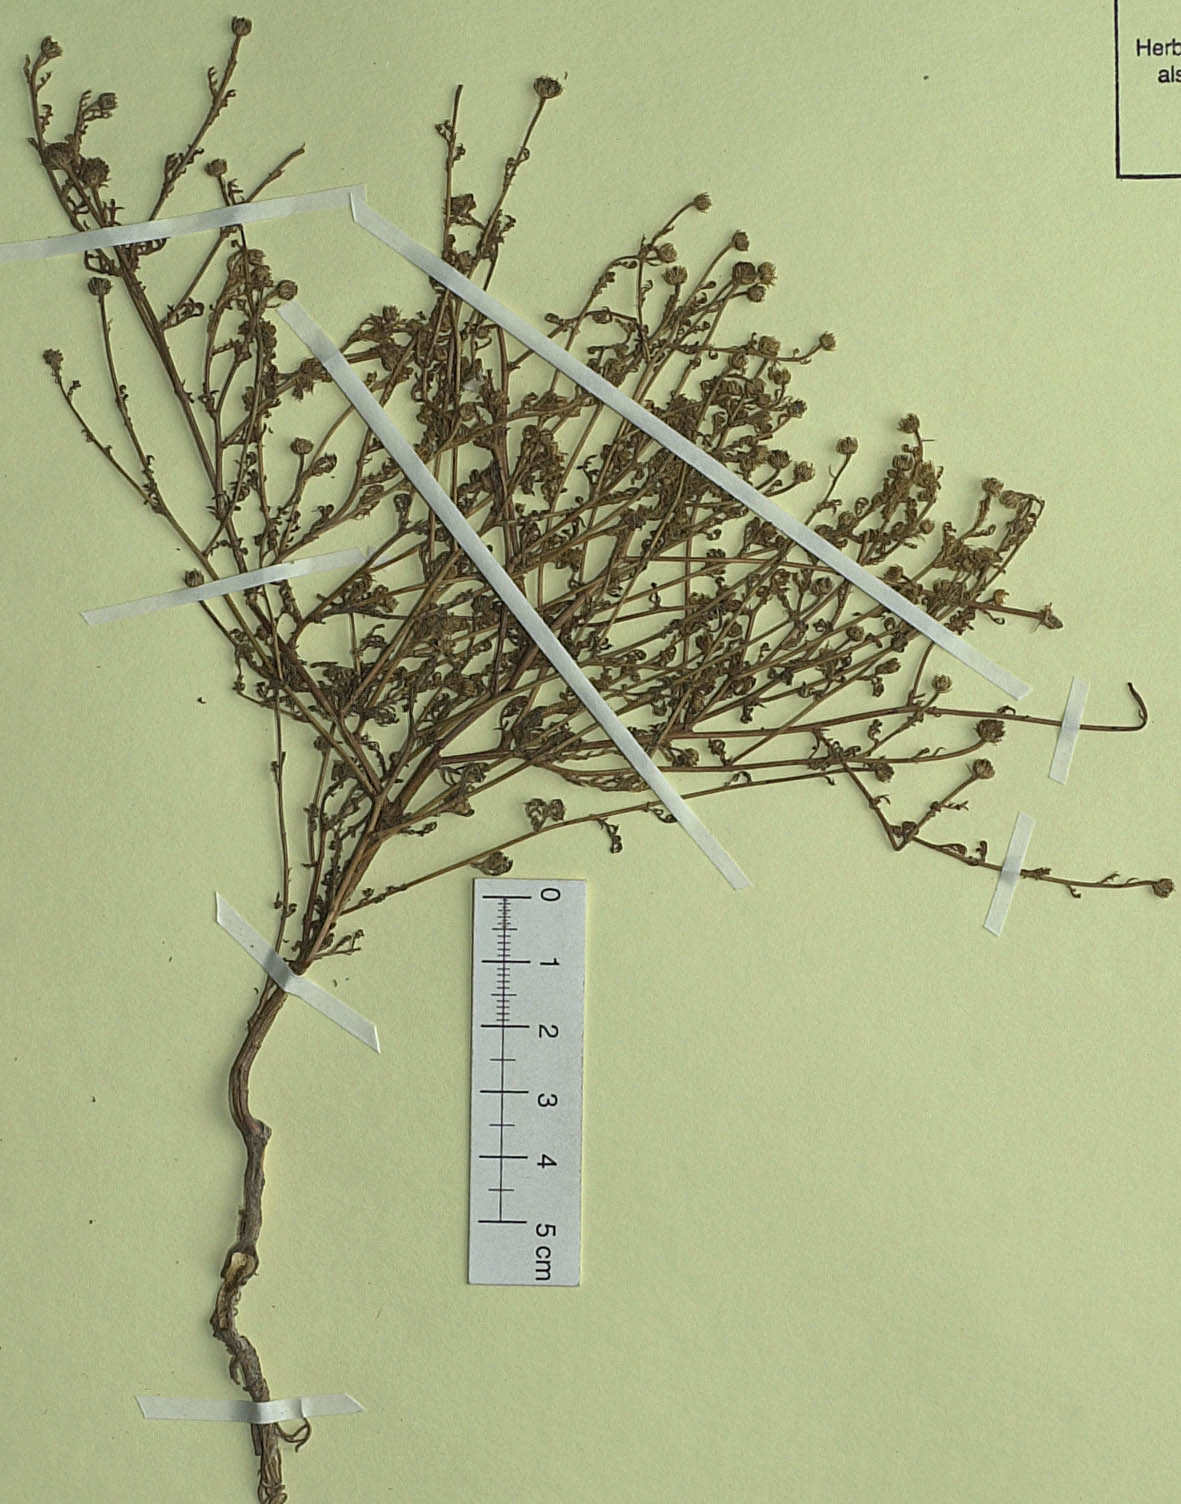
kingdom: Plantae
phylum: Tracheophyta
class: Magnoliopsida
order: Asterales
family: Asteraceae
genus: Anthemis
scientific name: Anthemis funkii
